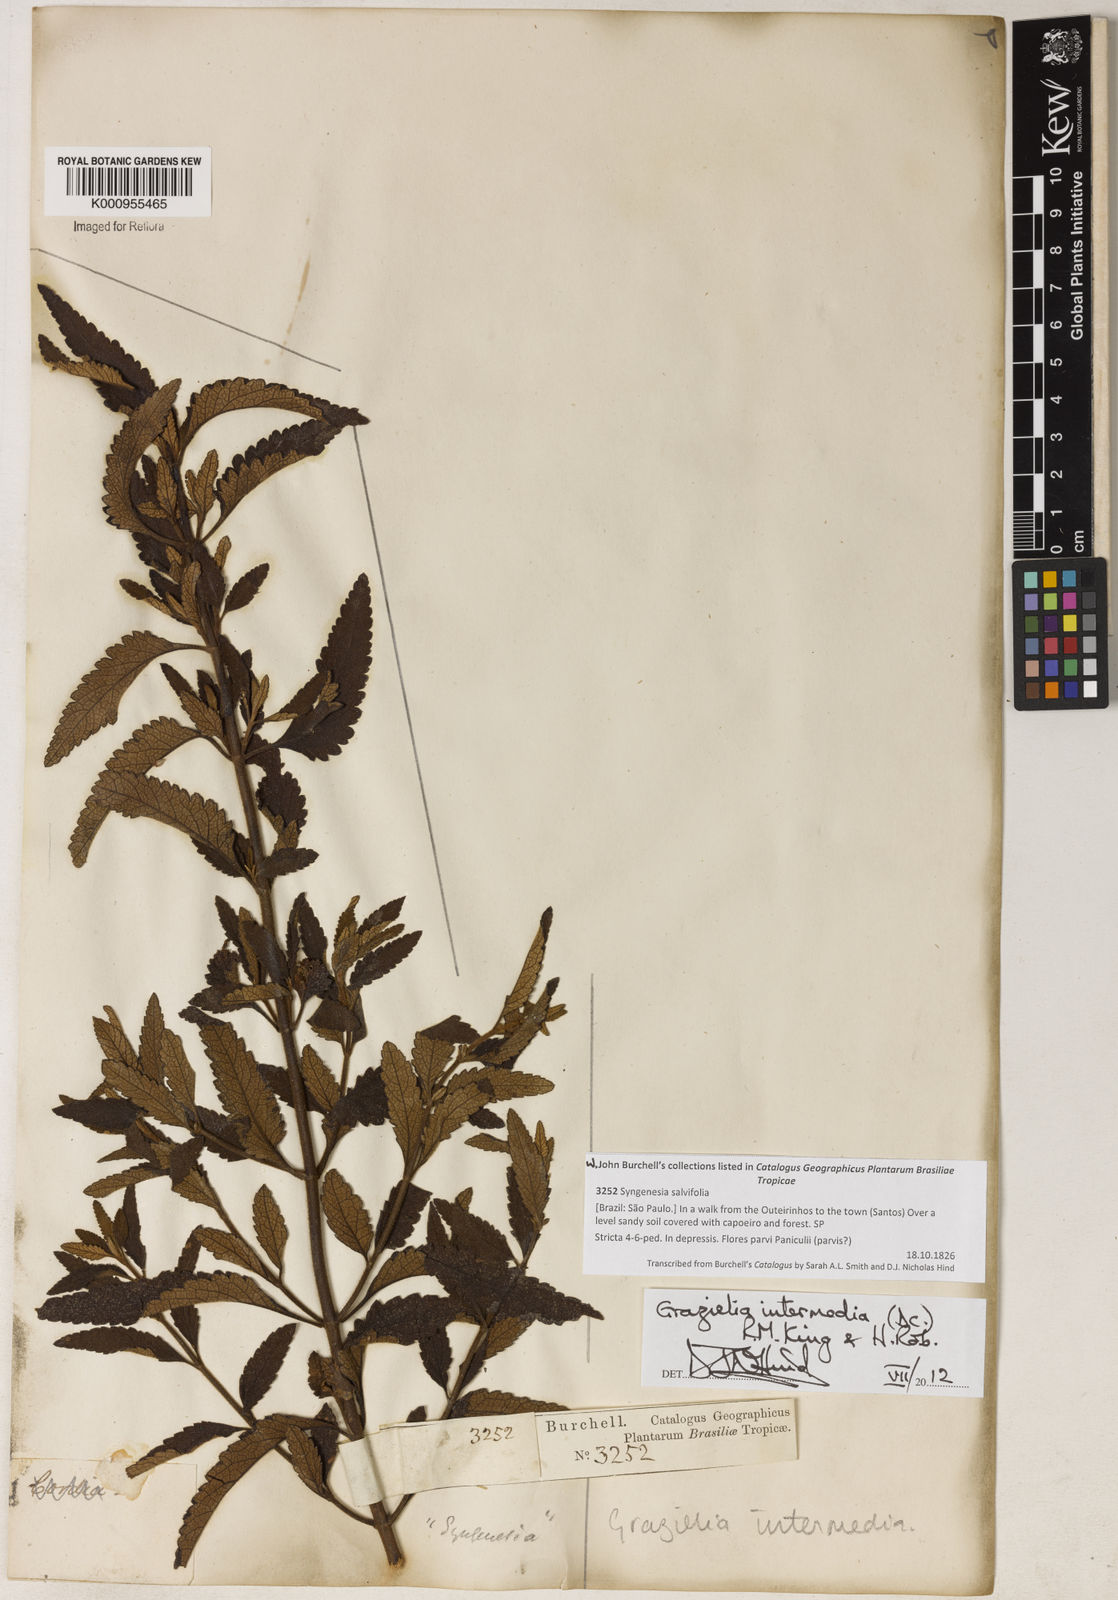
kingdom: Plantae
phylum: Tracheophyta
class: Magnoliopsida
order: Asterales
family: Asteraceae
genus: Grazielia
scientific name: Grazielia intermedia
